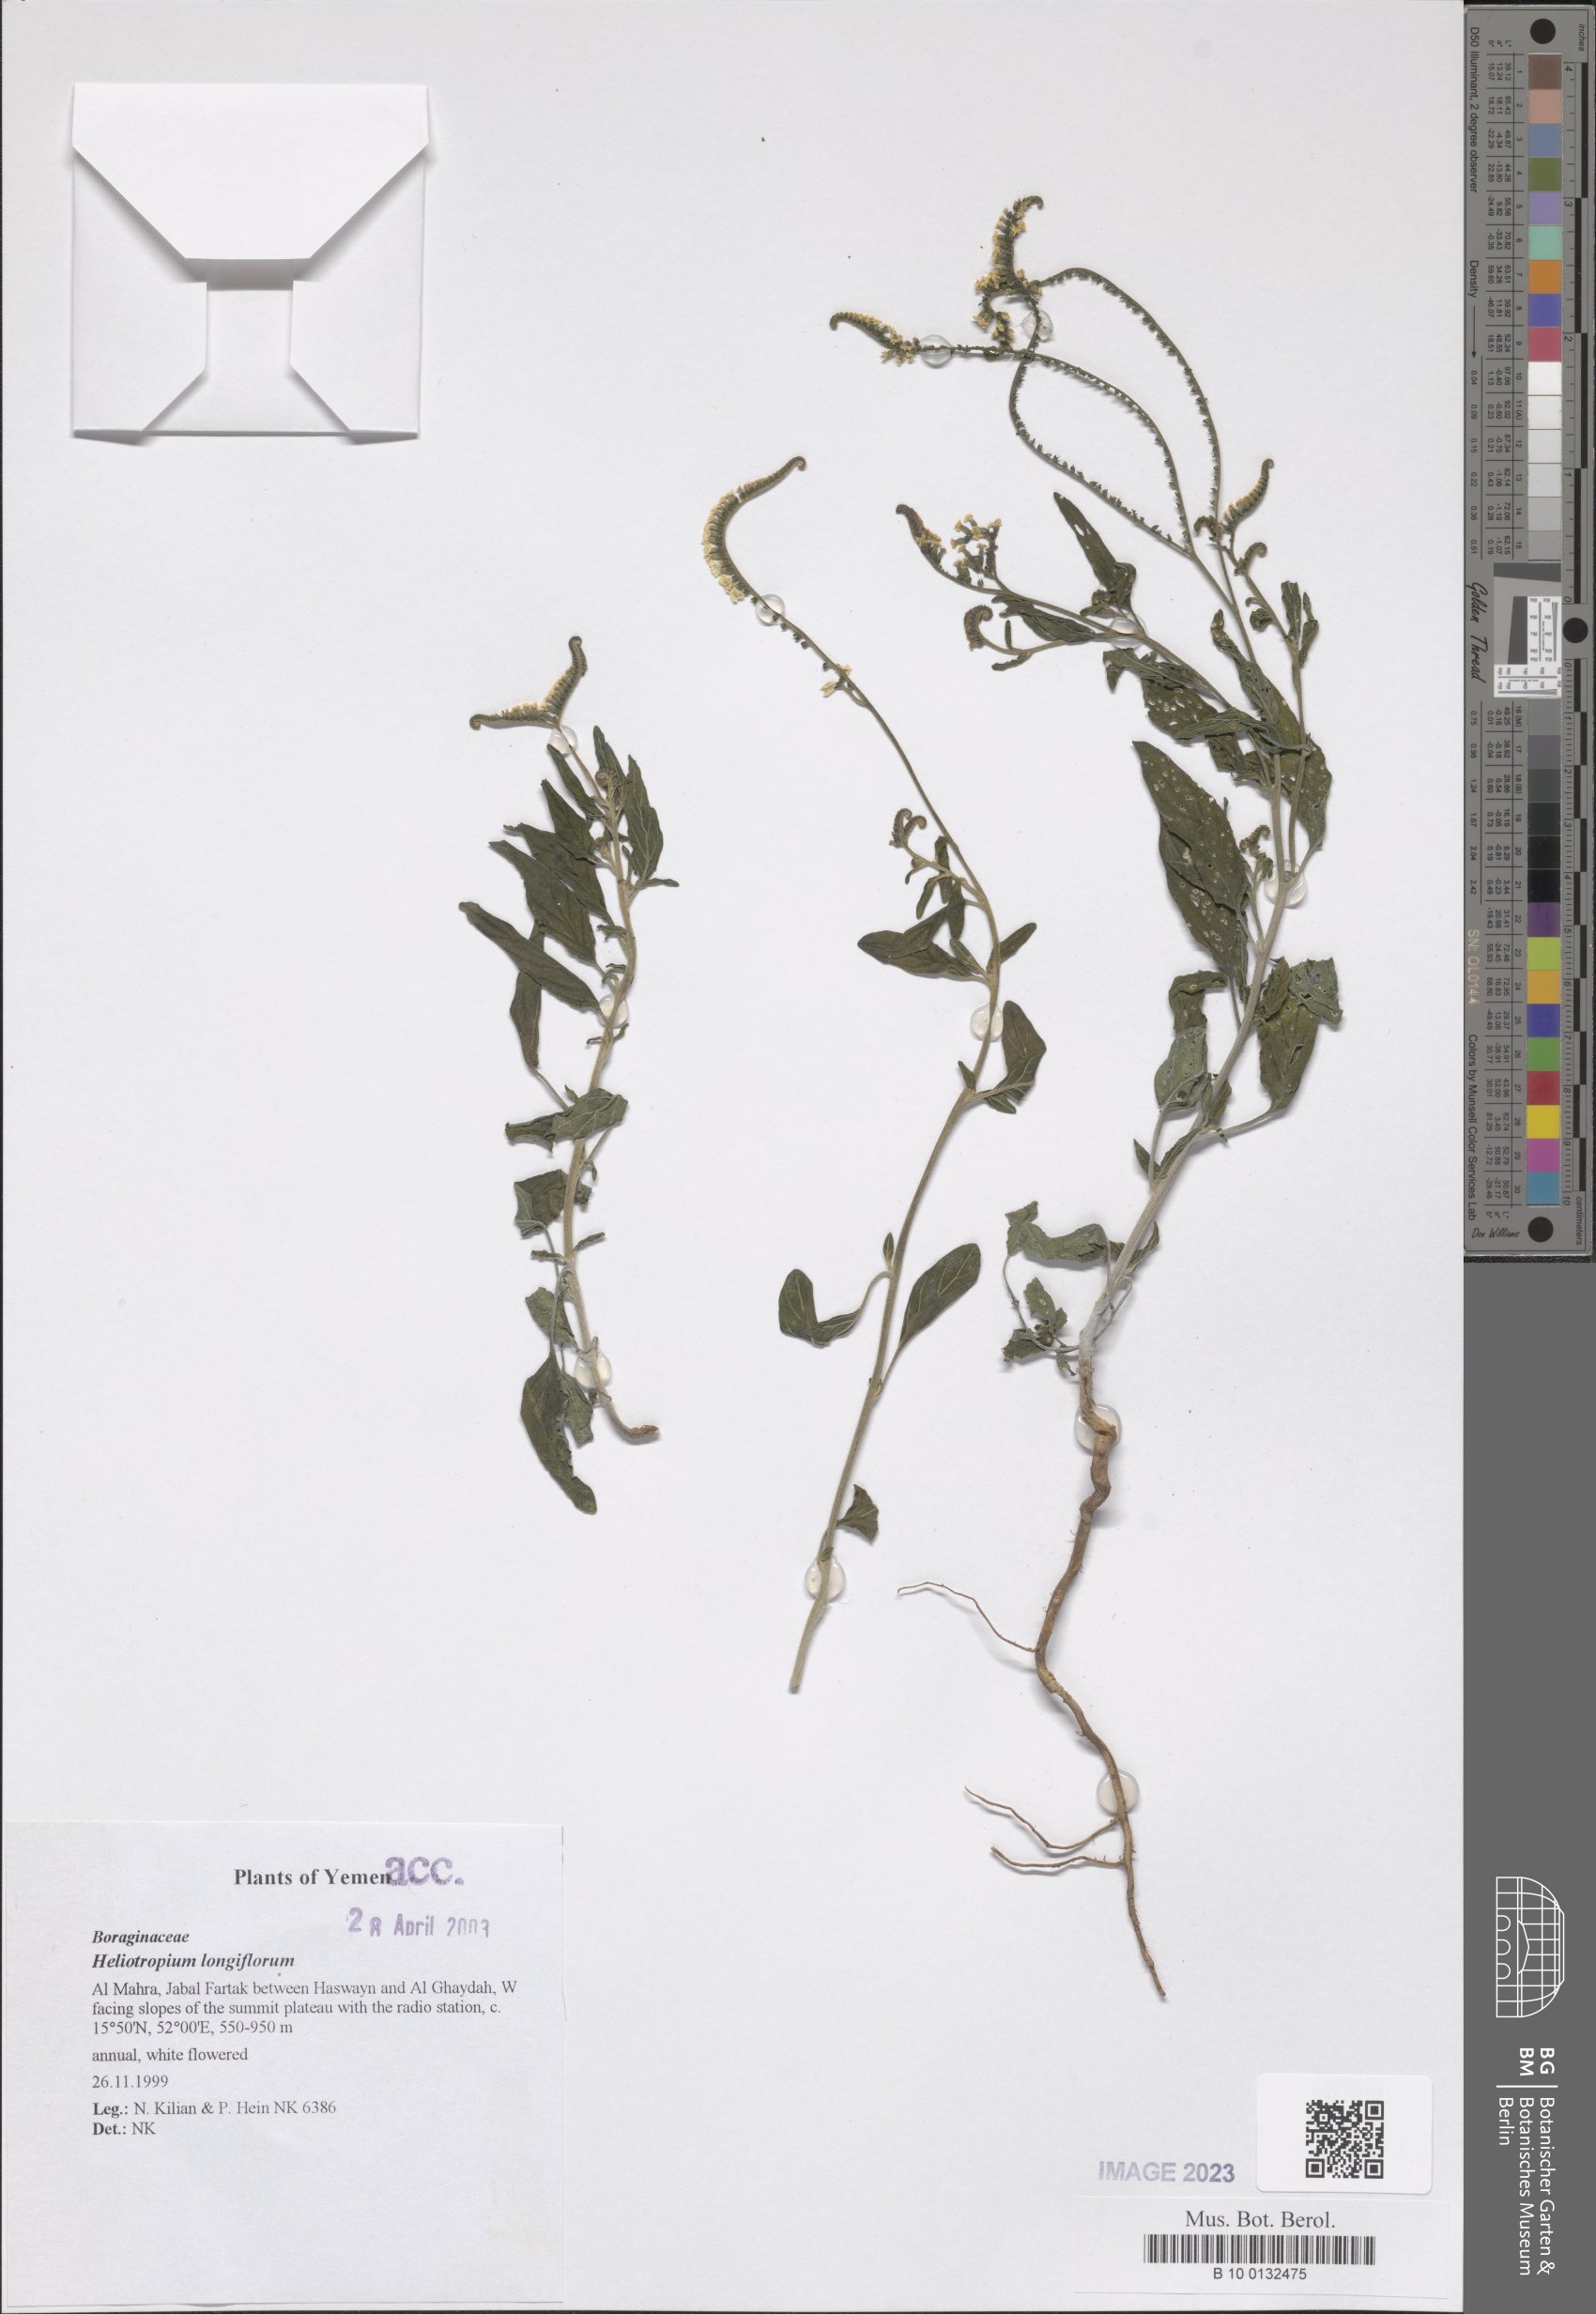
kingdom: Plantae
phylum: Tracheophyta
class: Magnoliopsida
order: Boraginales
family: Heliotropiaceae
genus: Heliotropium
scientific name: Heliotropium longiflorum
